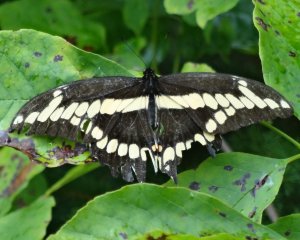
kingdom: Animalia
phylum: Arthropoda
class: Insecta
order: Lepidoptera
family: Papilionidae
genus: Papilio
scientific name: Papilio cresphontes
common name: Eastern Giant Swallowtail
